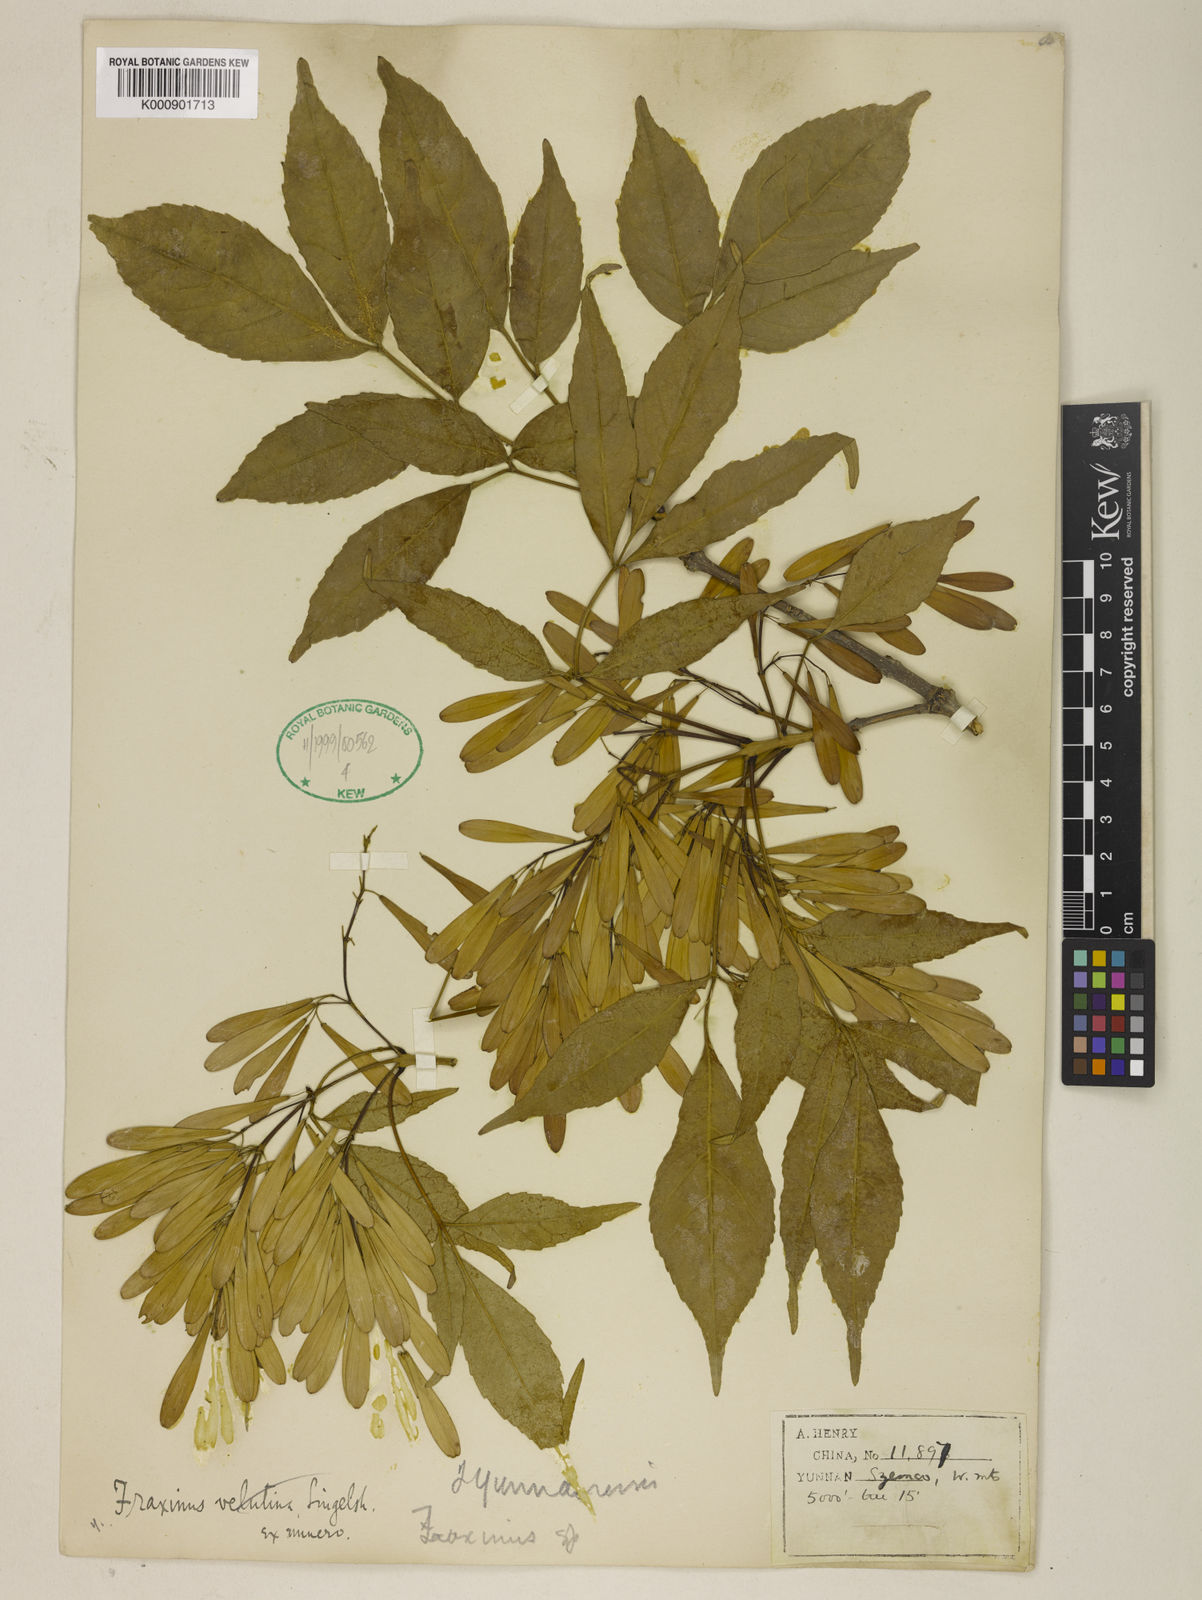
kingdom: Plantae
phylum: Tracheophyta
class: Magnoliopsida
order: Lamiales
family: Oleaceae
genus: Fraxinus
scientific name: Fraxinus chinensis
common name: Chinese ash
